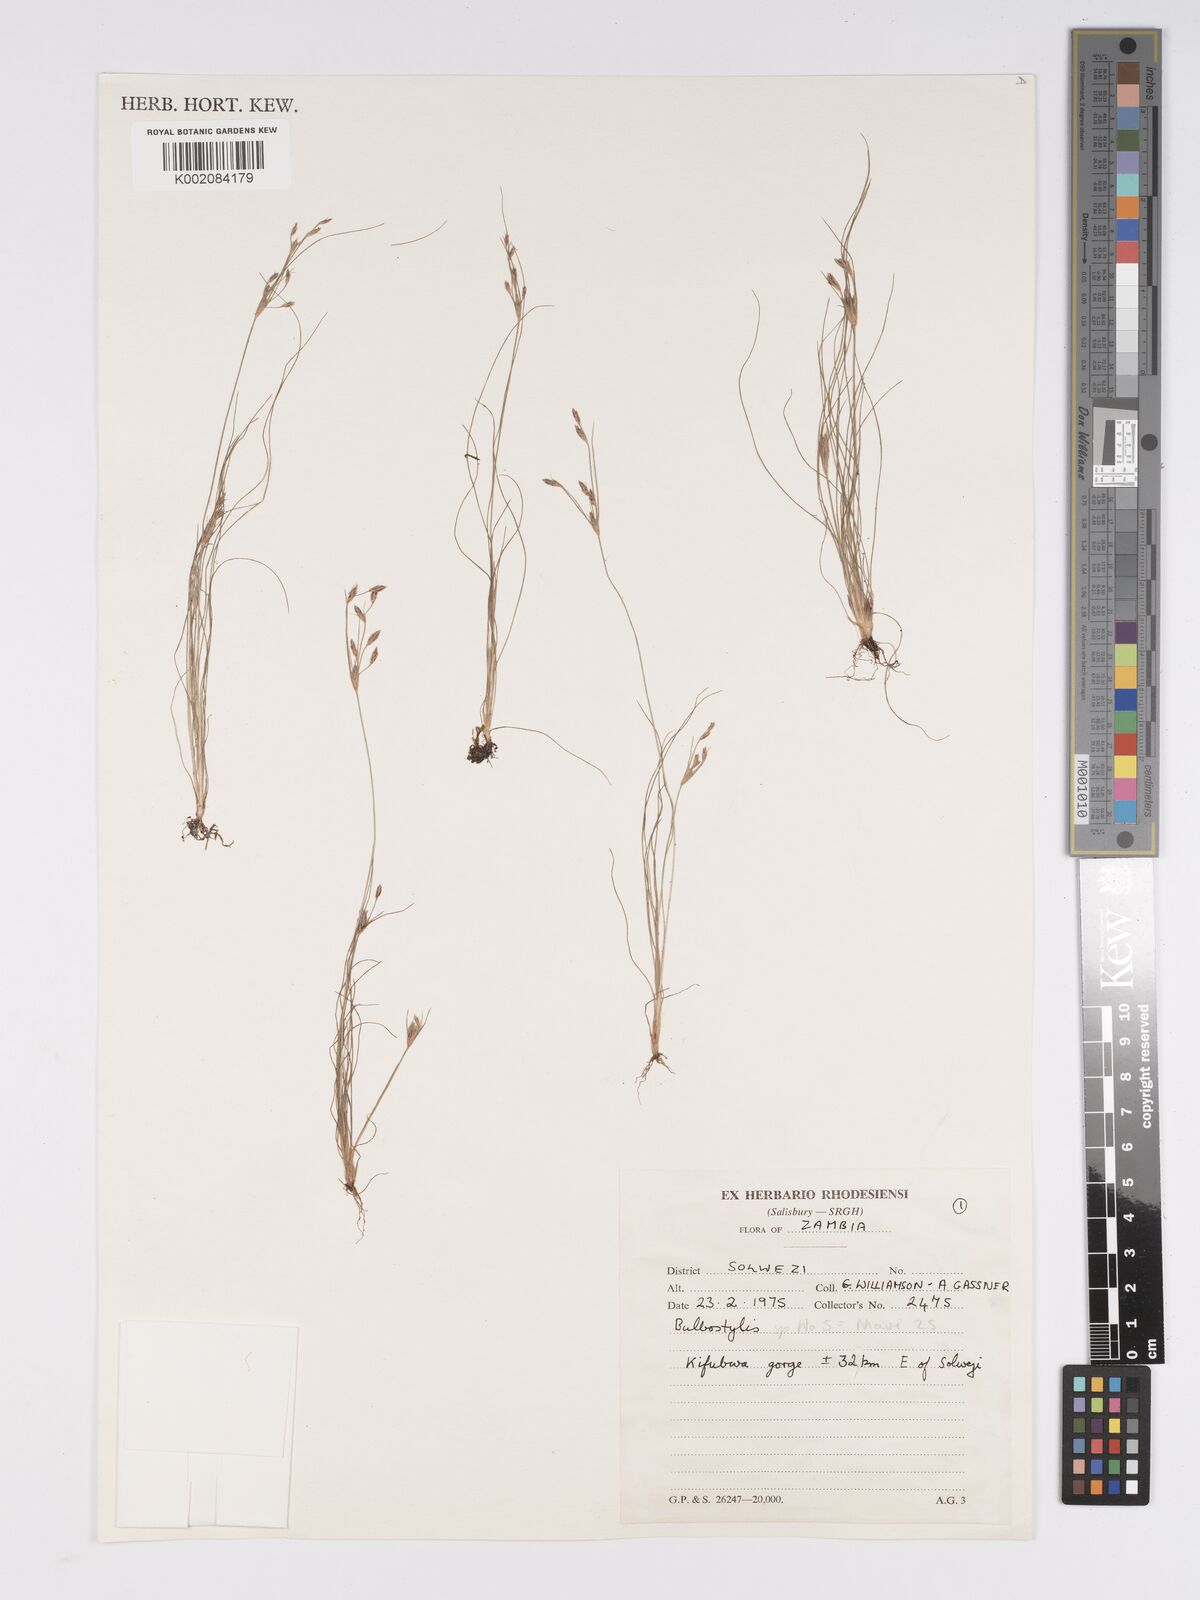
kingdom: Plantae
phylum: Tracheophyta
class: Liliopsida
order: Poales
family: Cyperaceae
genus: Bulbostylis
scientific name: Bulbostylis
